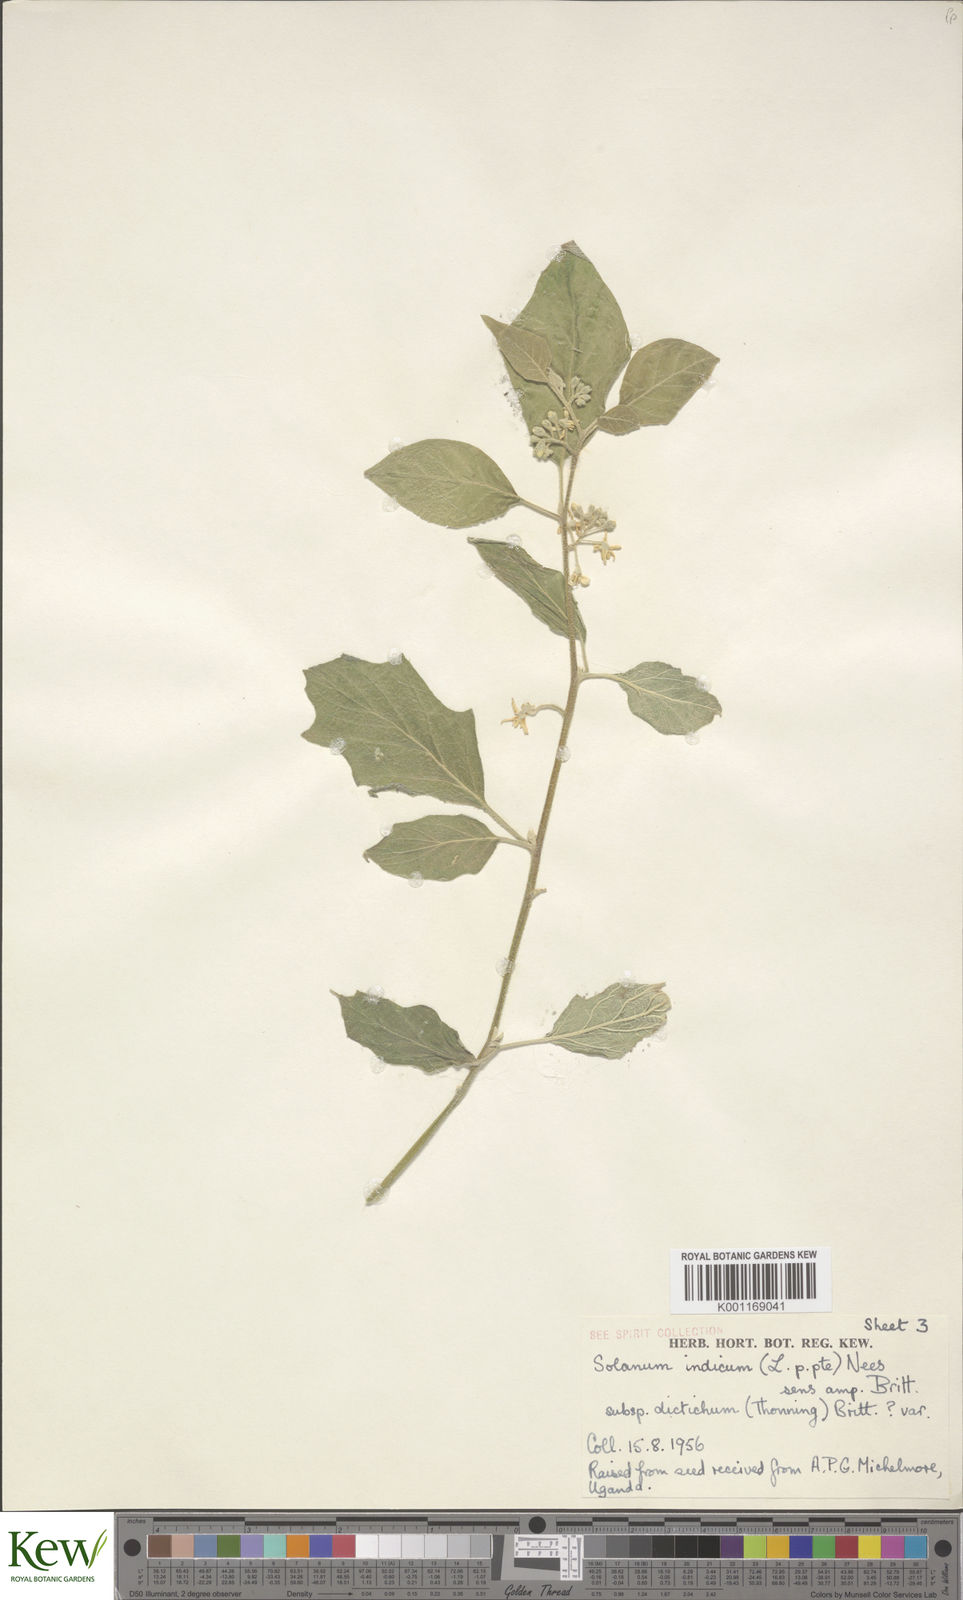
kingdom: Plantae
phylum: Tracheophyta
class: Magnoliopsida
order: Solanales
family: Solanaceae
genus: Solanum
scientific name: Solanum violaceum
